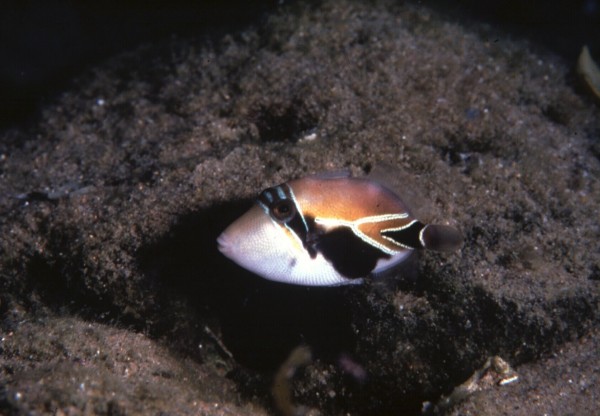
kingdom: Animalia
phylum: Chordata
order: Tetraodontiformes
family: Balistidae
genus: Rhinecanthus
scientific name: Rhinecanthus rectangulus
